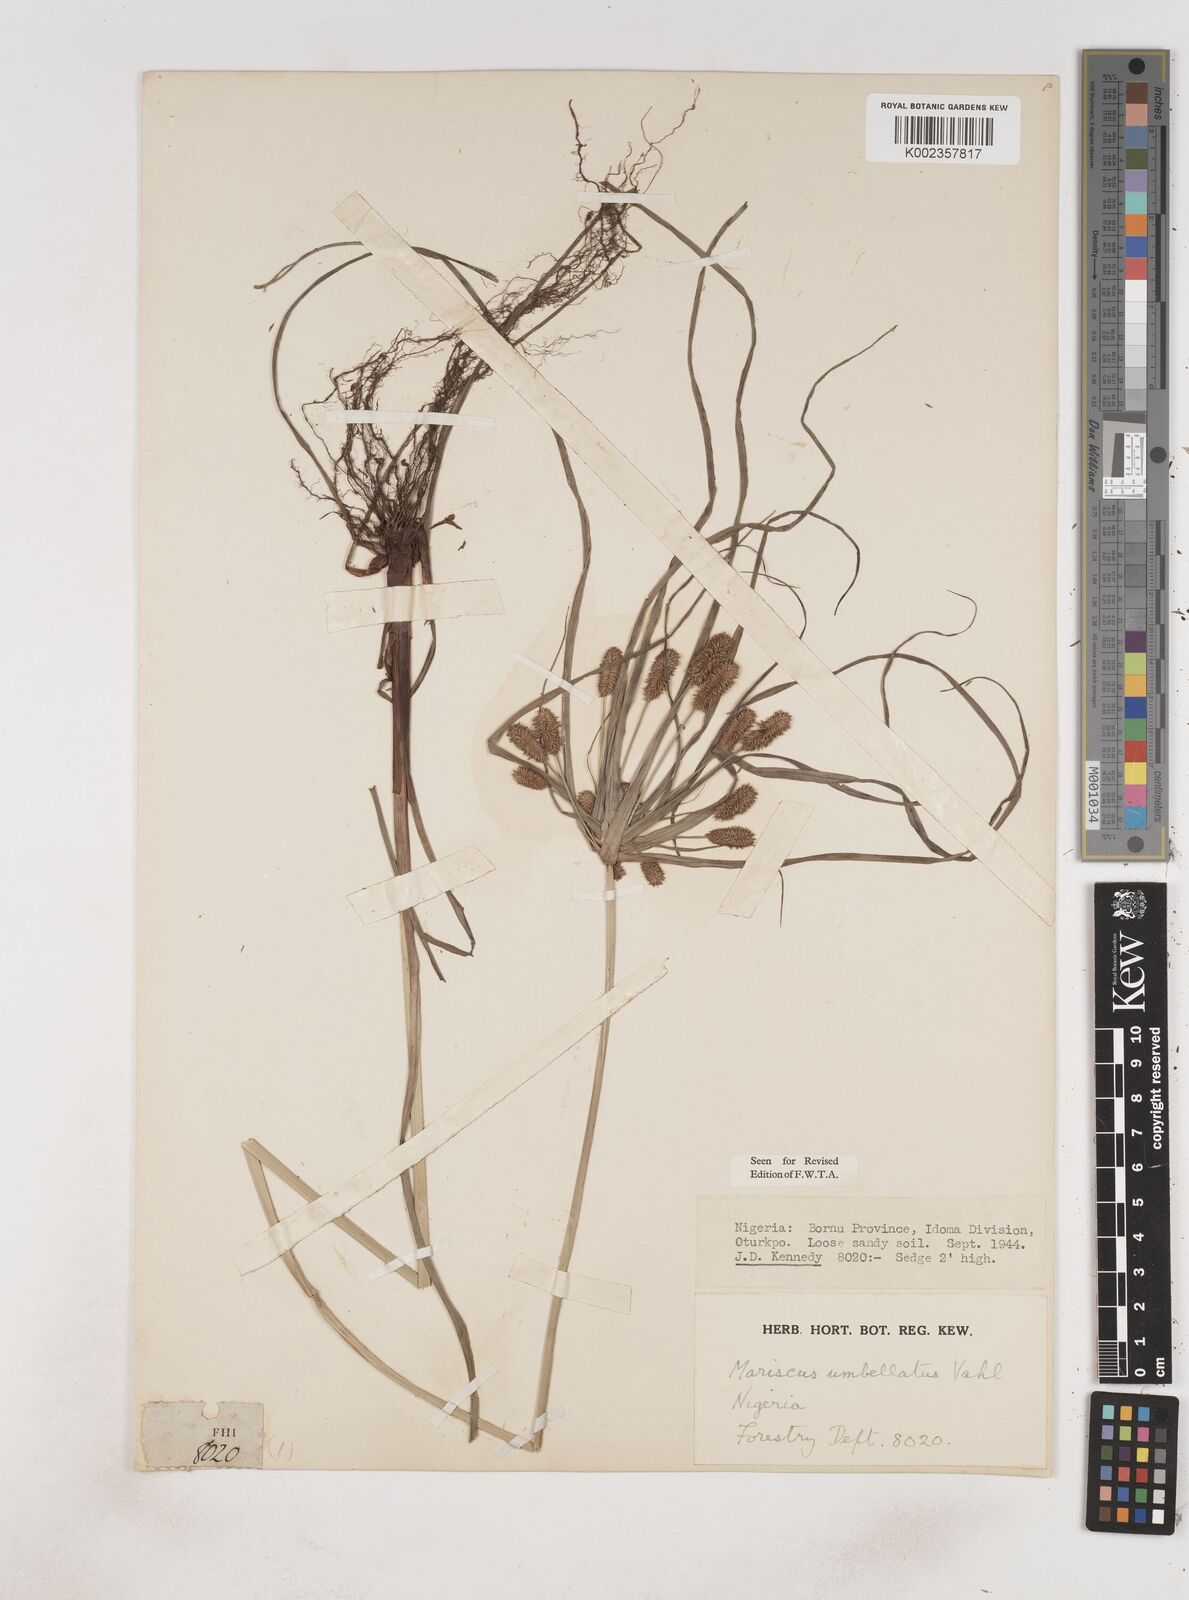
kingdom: Plantae
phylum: Tracheophyta
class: Liliopsida
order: Poales
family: Cyperaceae
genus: Cyperus
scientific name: Cyperus sublimis
